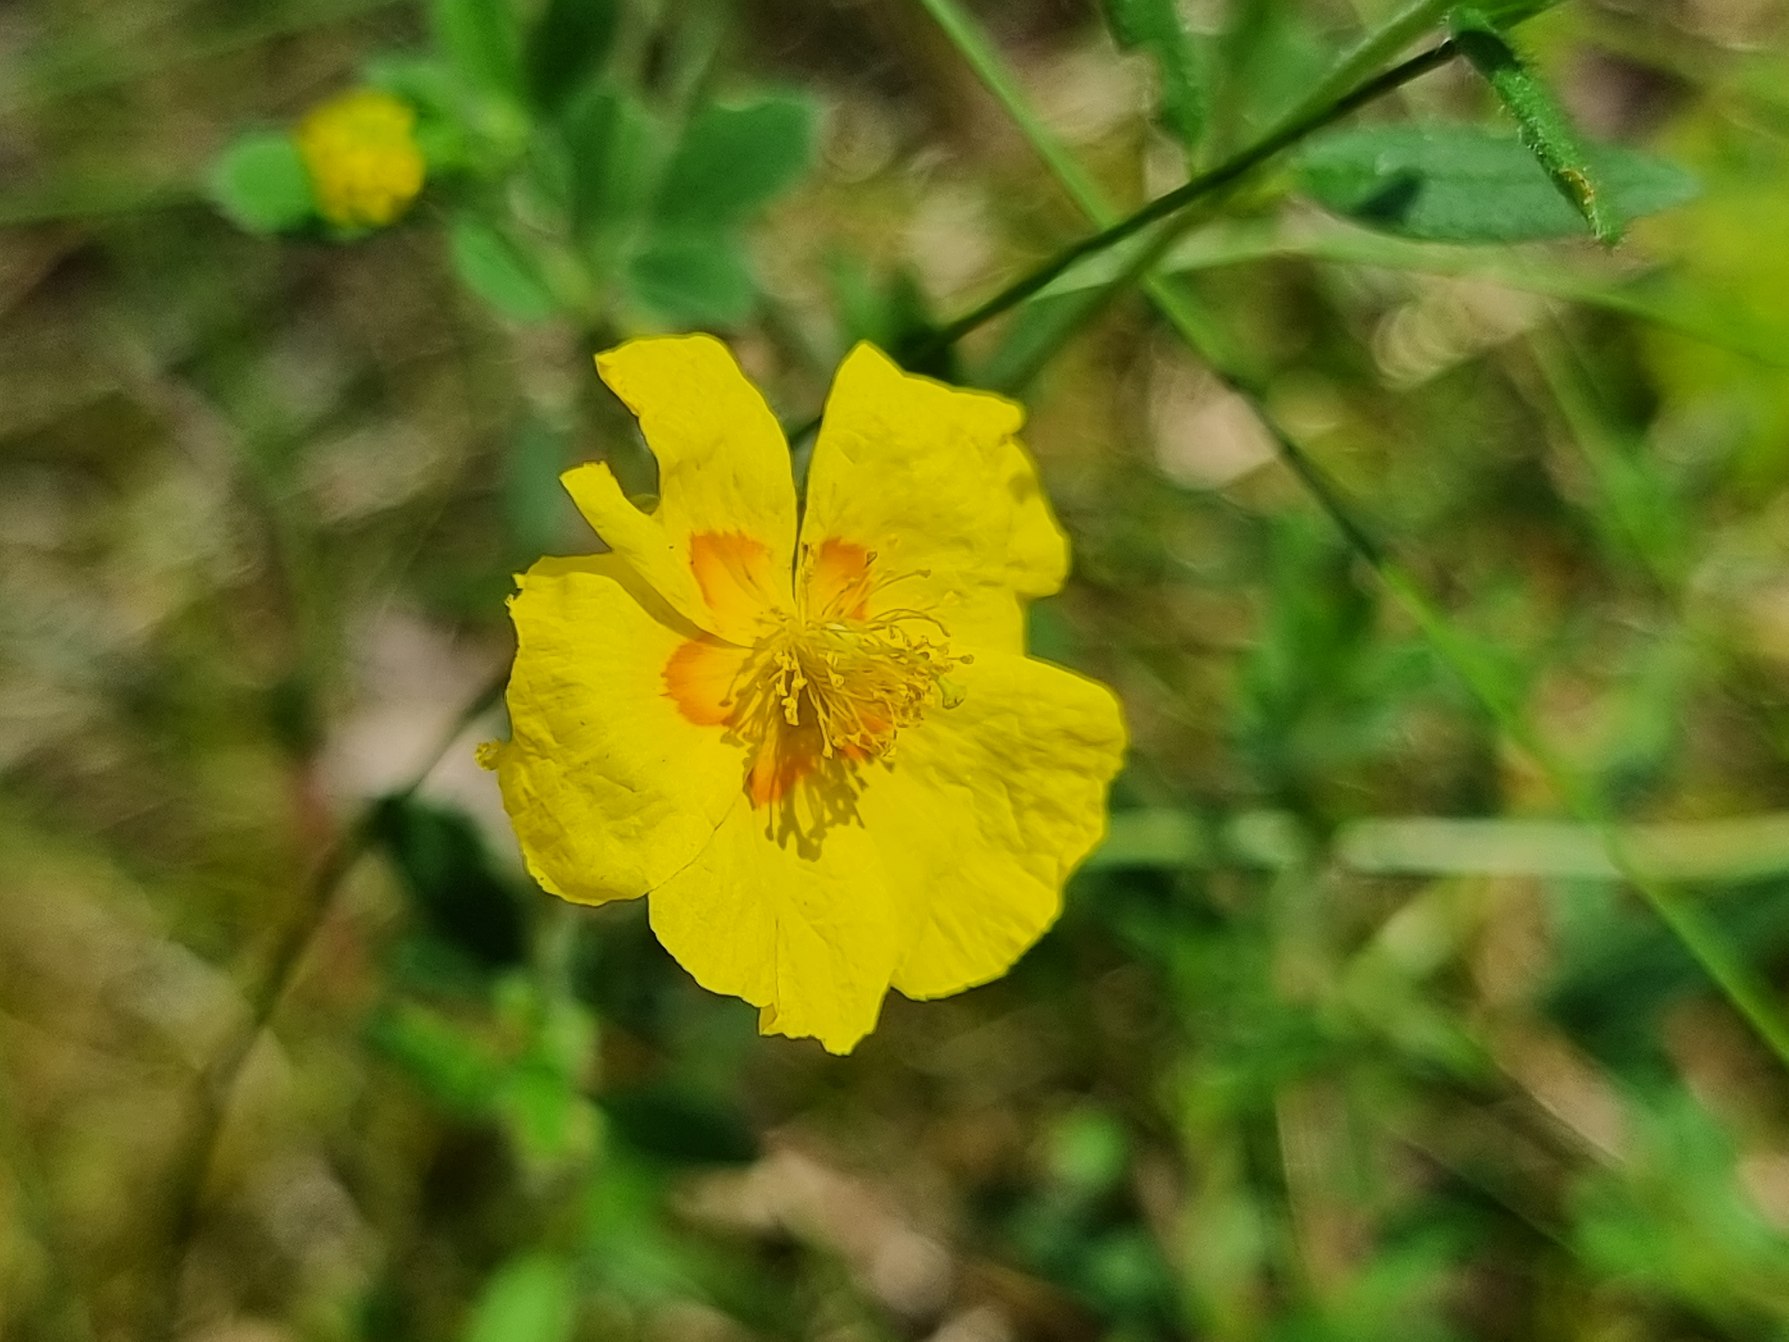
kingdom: Plantae
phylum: Tracheophyta
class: Magnoliopsida
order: Malvales
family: Cistaceae
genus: Helianthemum
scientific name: Helianthemum nummularium
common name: Bakke-soløje
